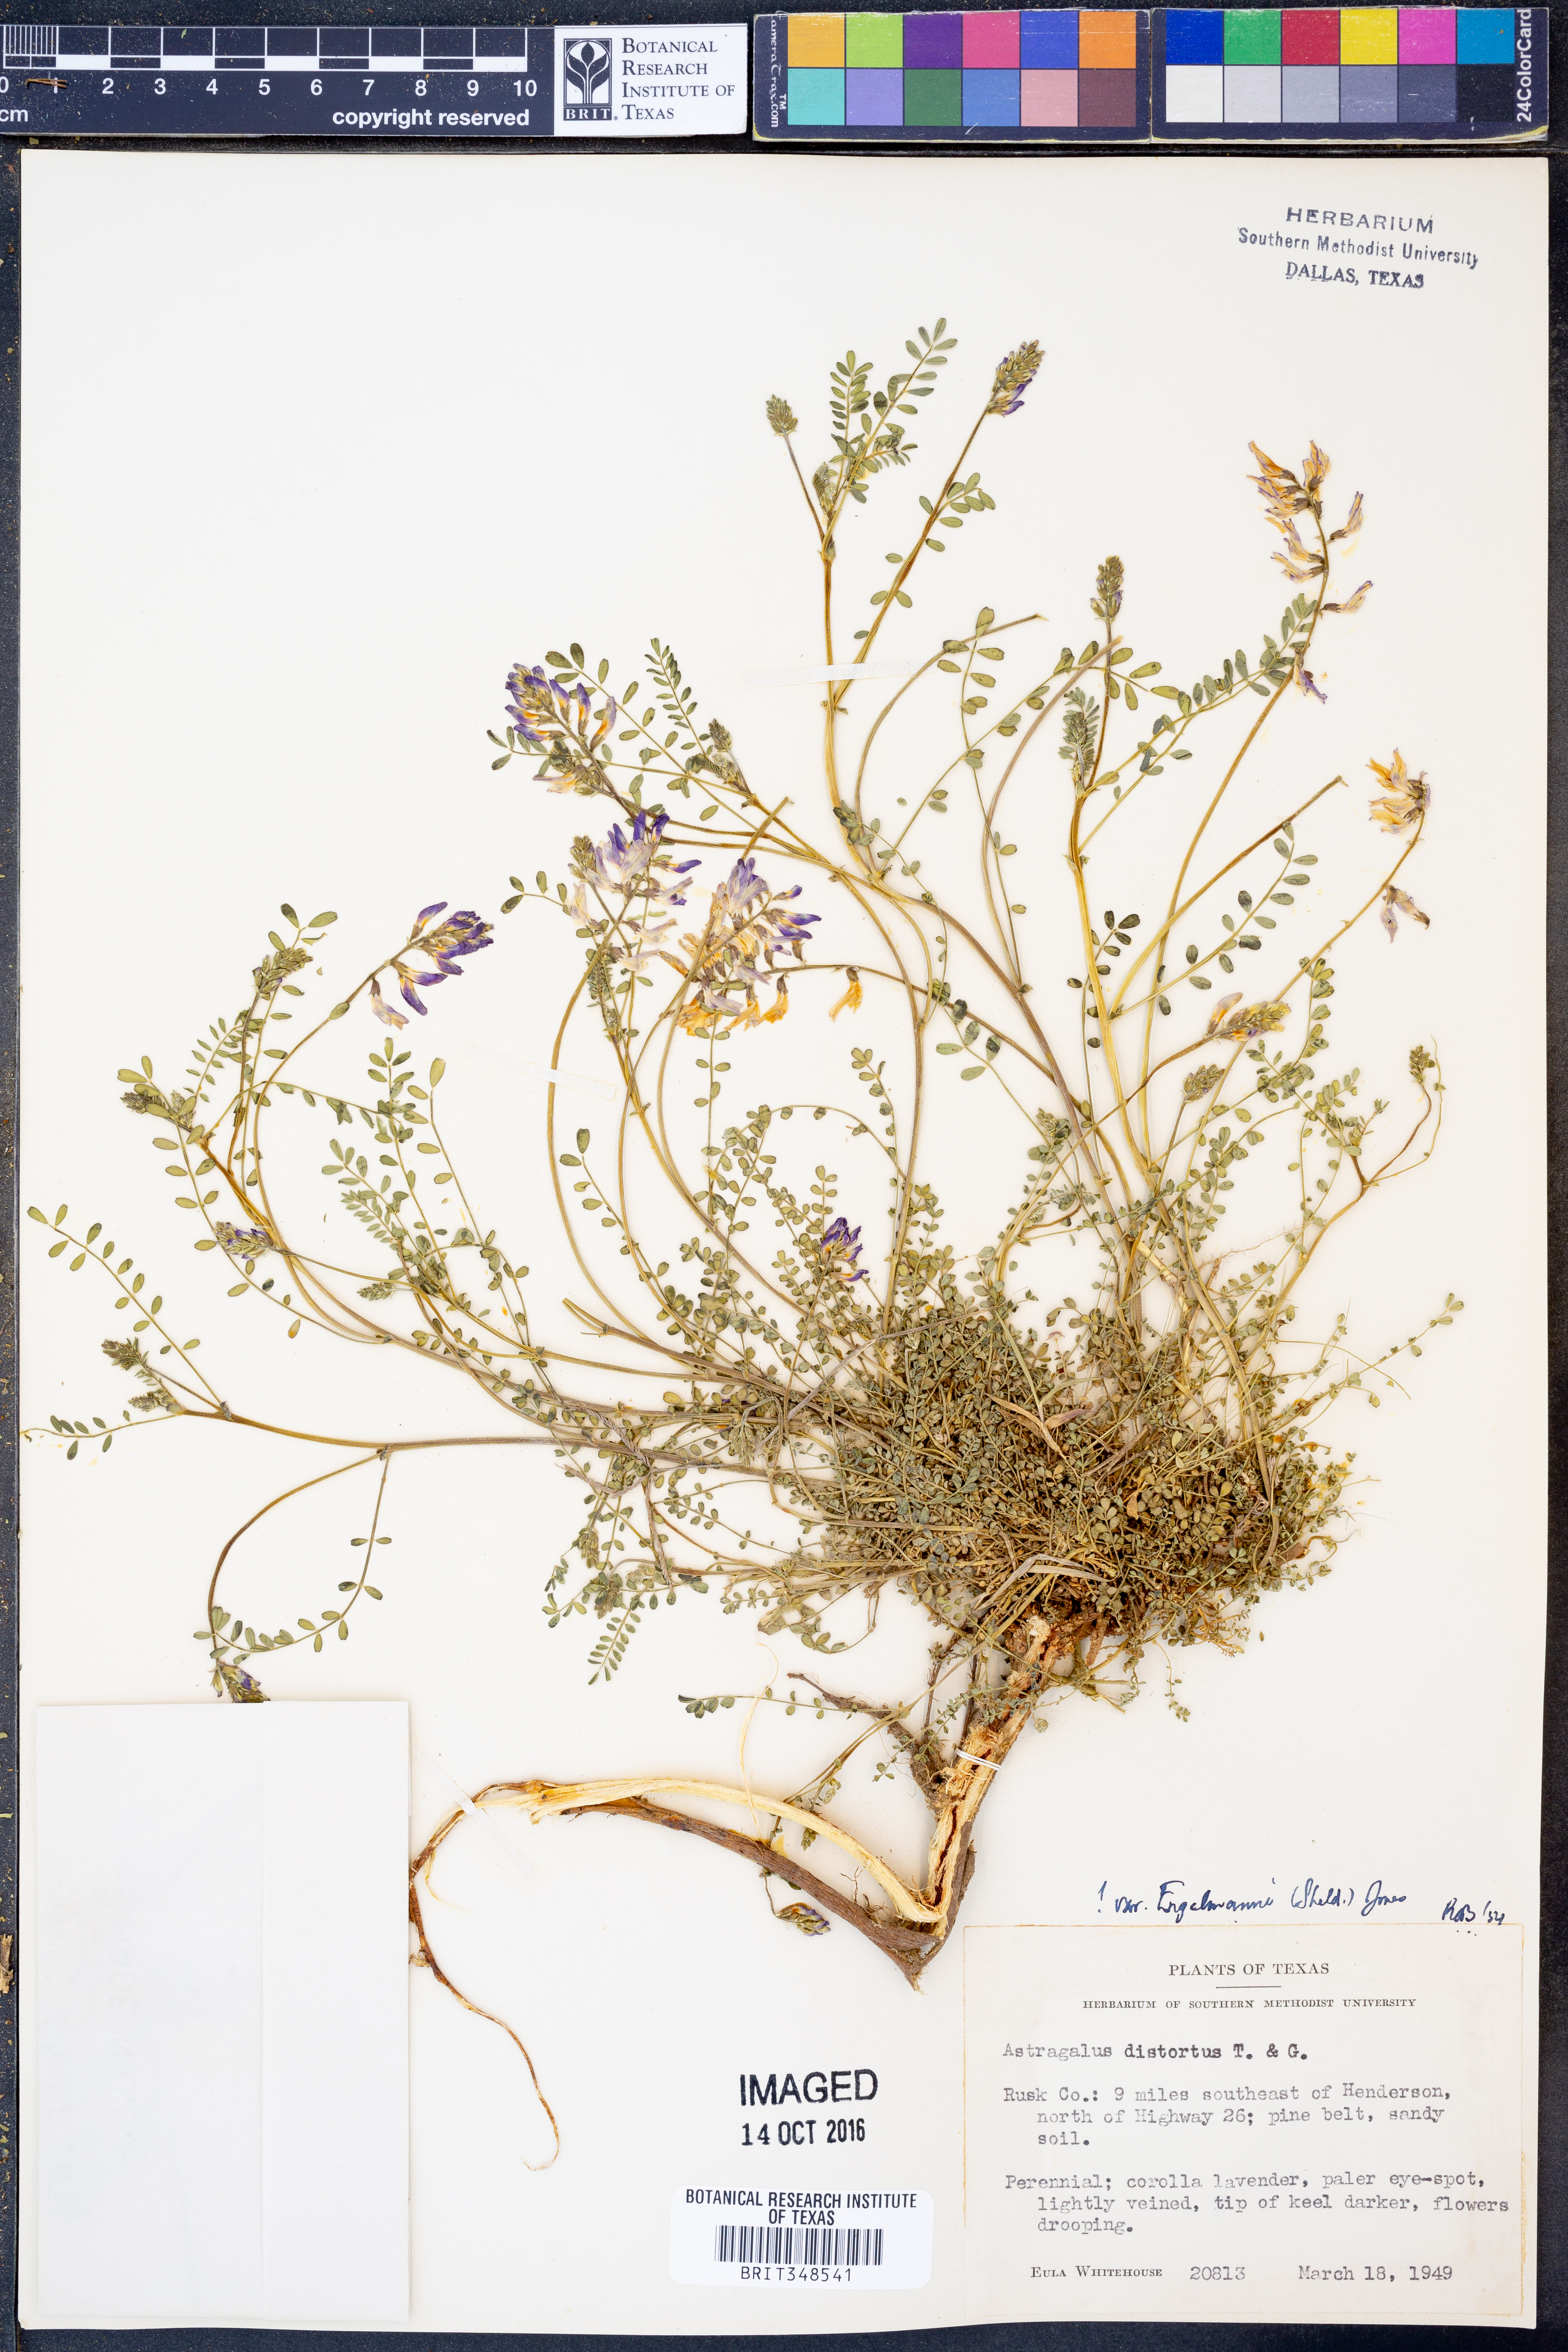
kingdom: Plantae
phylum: Tracheophyta
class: Magnoliopsida
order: Fabales
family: Fabaceae
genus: Astragalus
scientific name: Astragalus distortus
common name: Ozark milk-vetch
